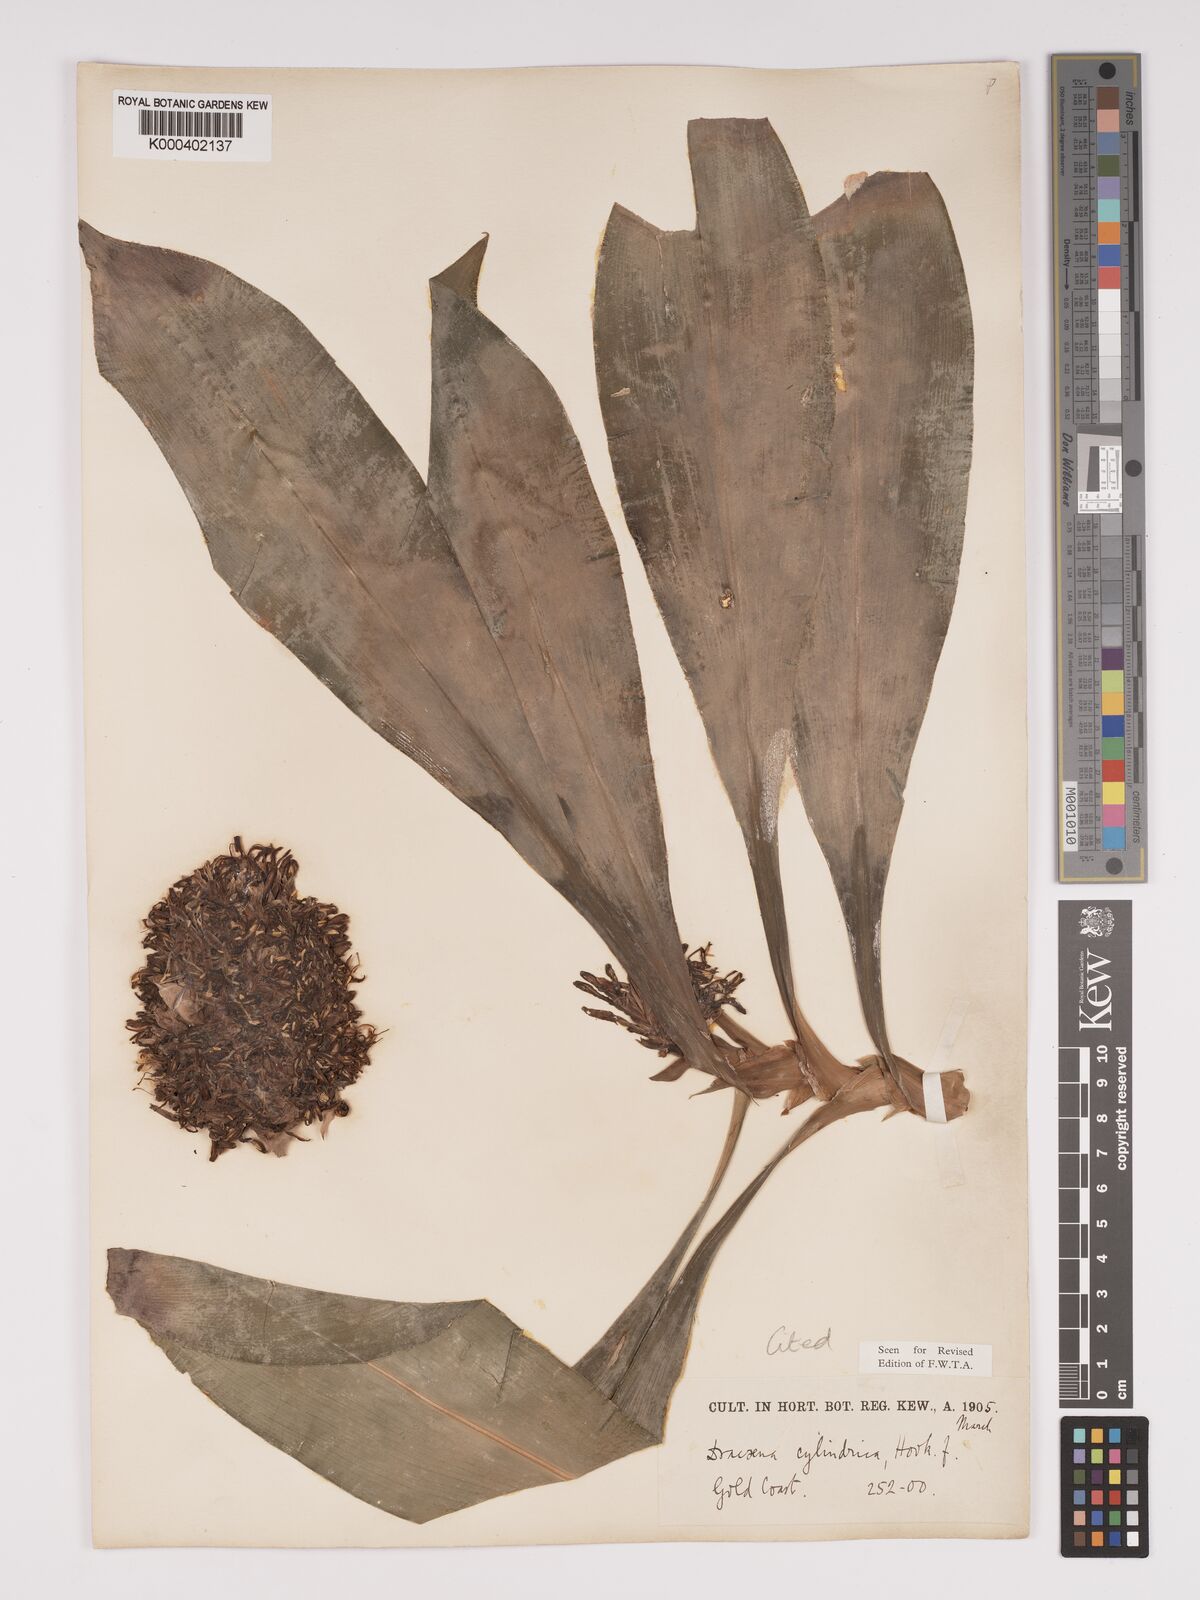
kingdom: Plantae
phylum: Tracheophyta
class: Liliopsida
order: Asparagales
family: Asparagaceae
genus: Dracaena
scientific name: Dracaena bicolor
